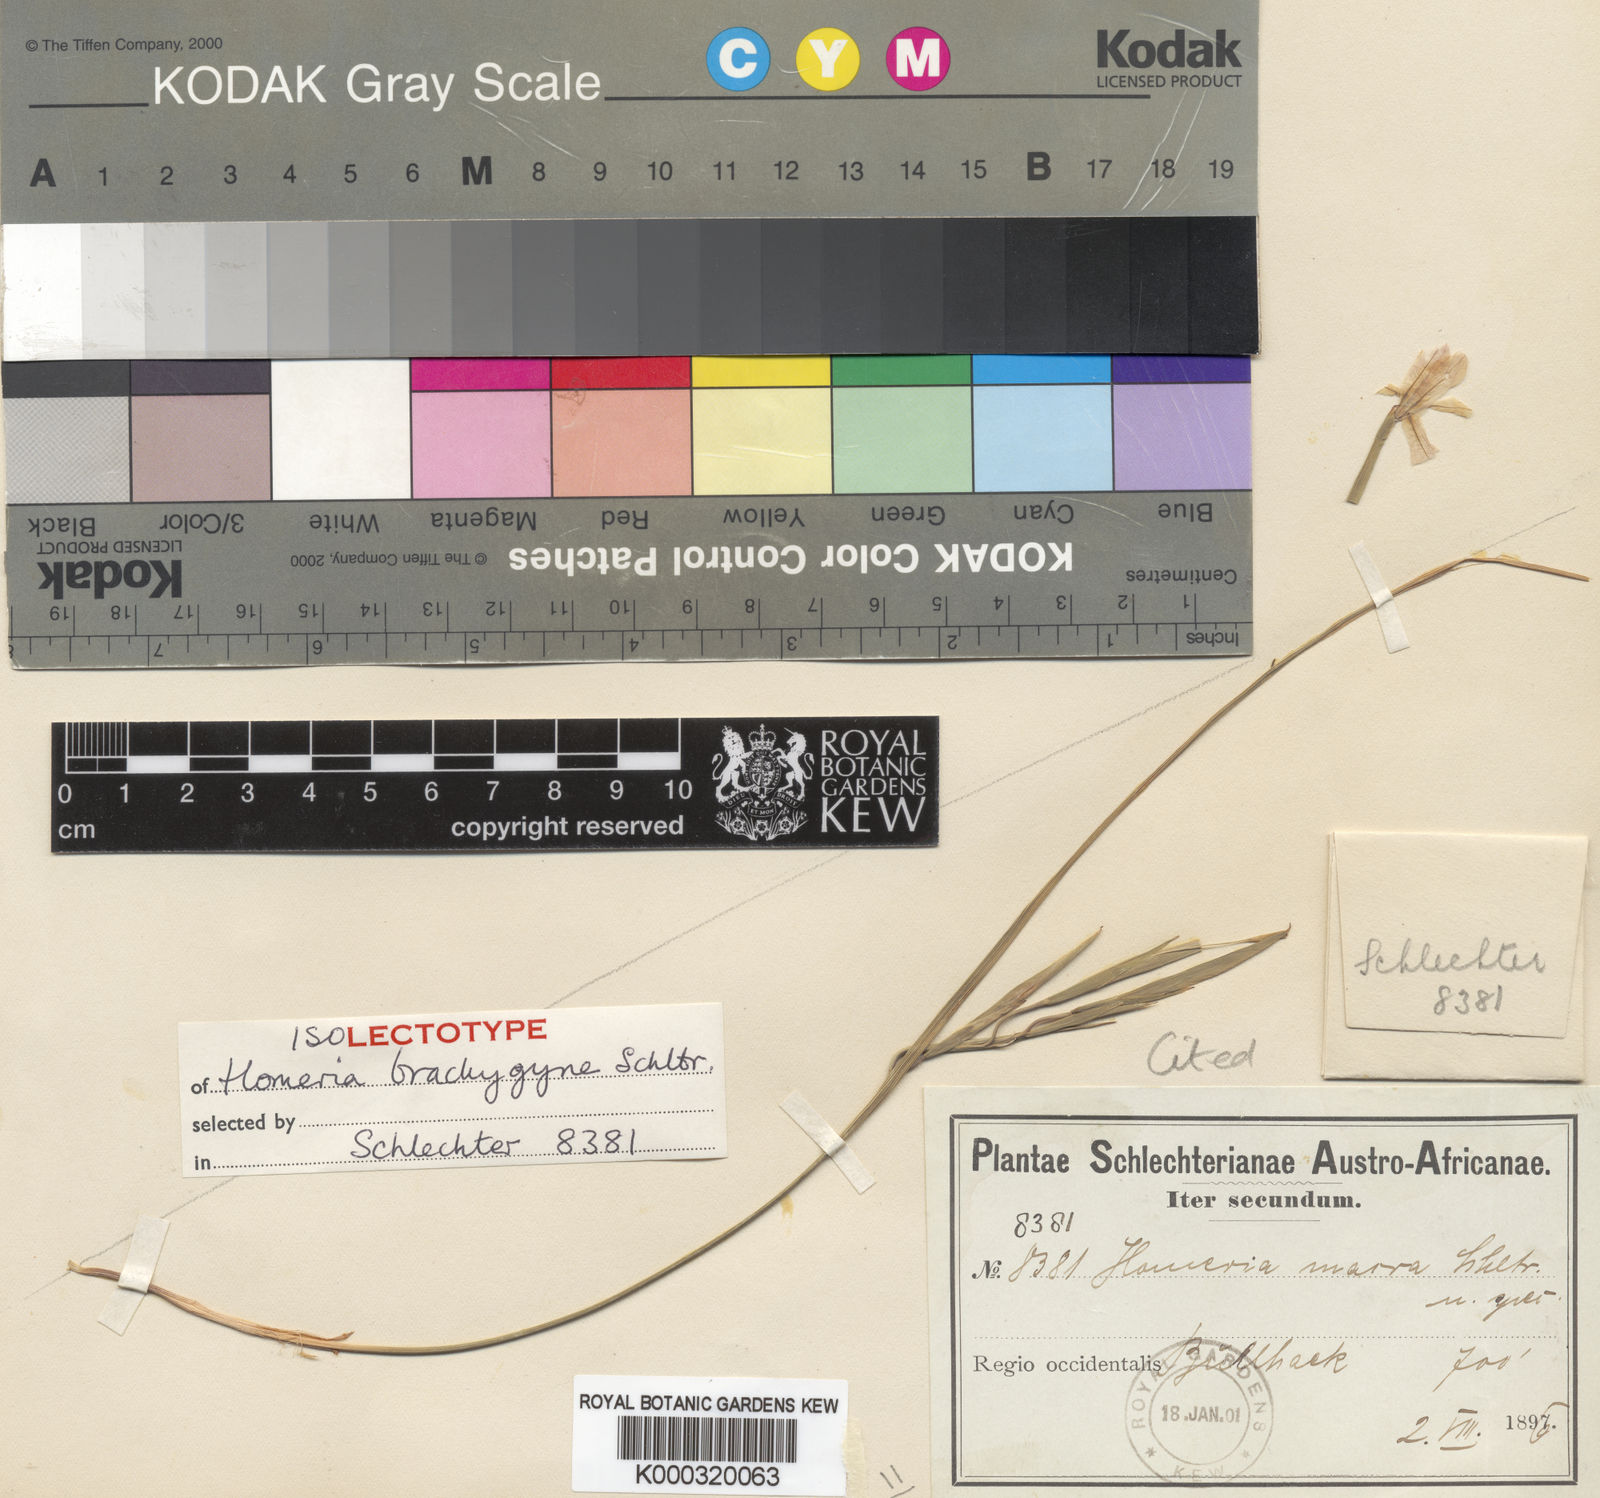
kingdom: Plantae
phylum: Tracheophyta
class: Liliopsida
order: Asparagales
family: Iridaceae
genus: Moraea
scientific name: Moraea brachygyne
